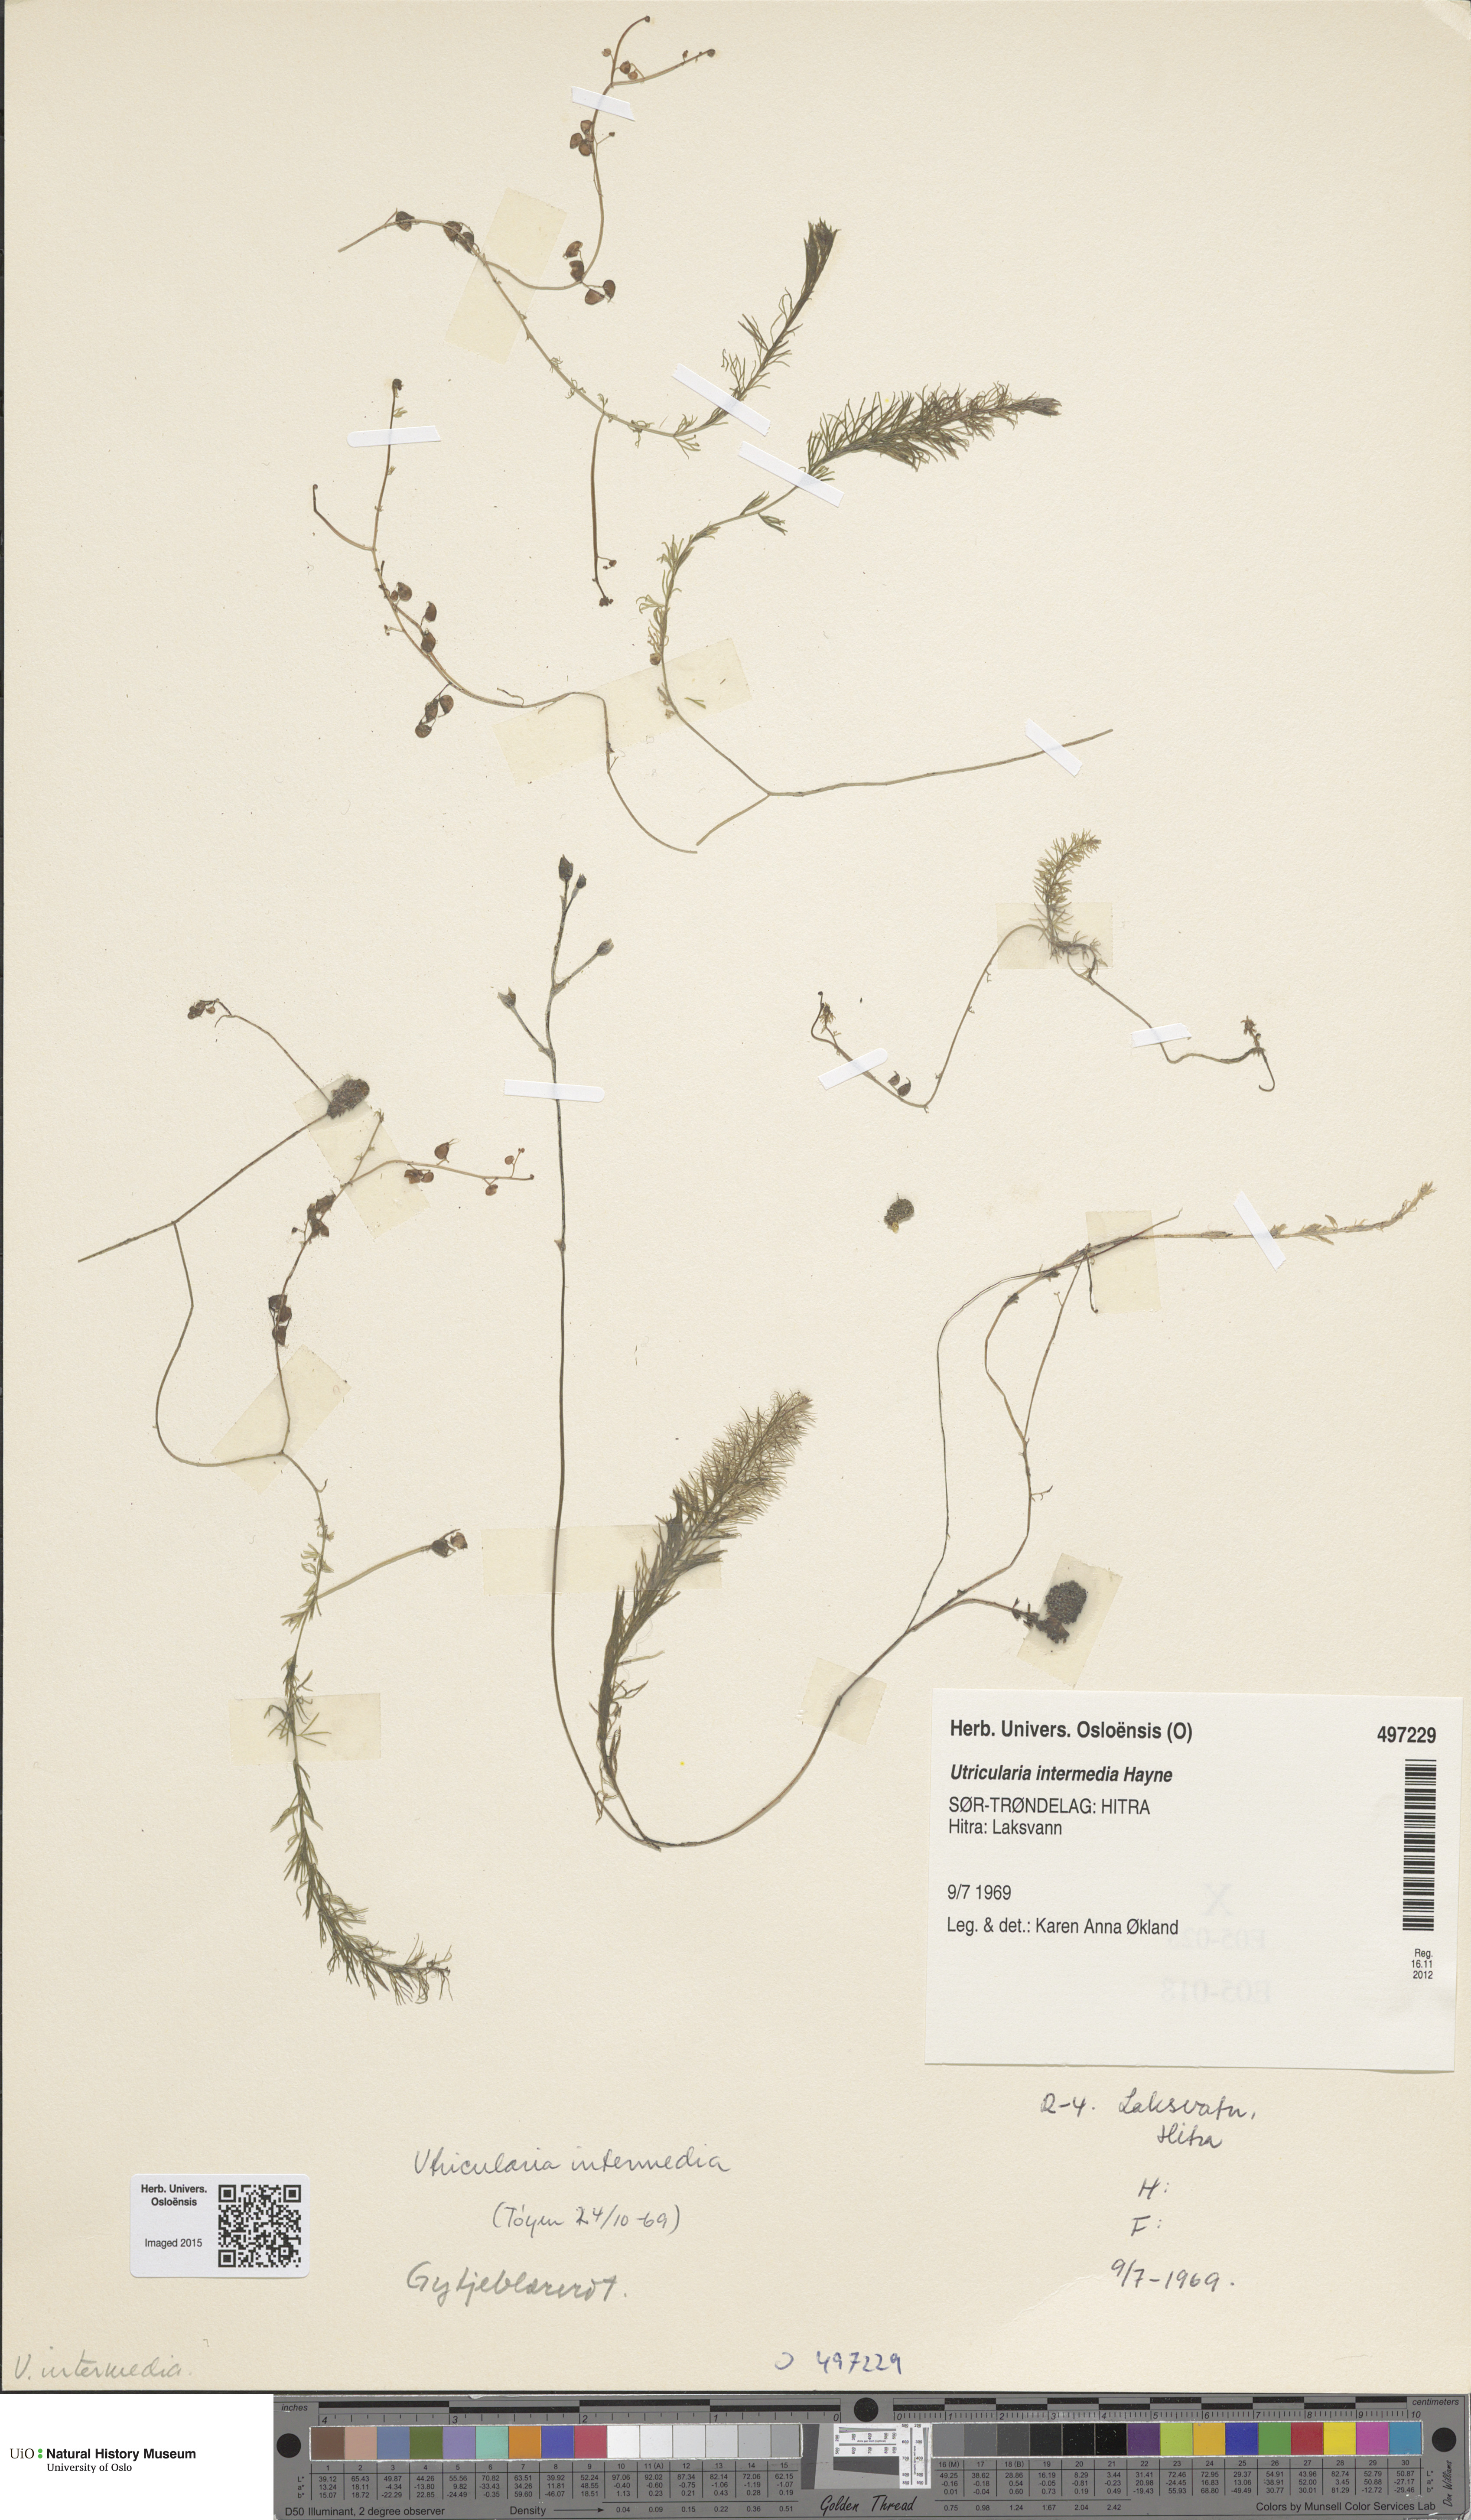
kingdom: Plantae
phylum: Tracheophyta
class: Magnoliopsida
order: Lamiales
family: Lentibulariaceae
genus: Utricularia
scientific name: Utricularia intermedia
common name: Intermediate bladderwort
